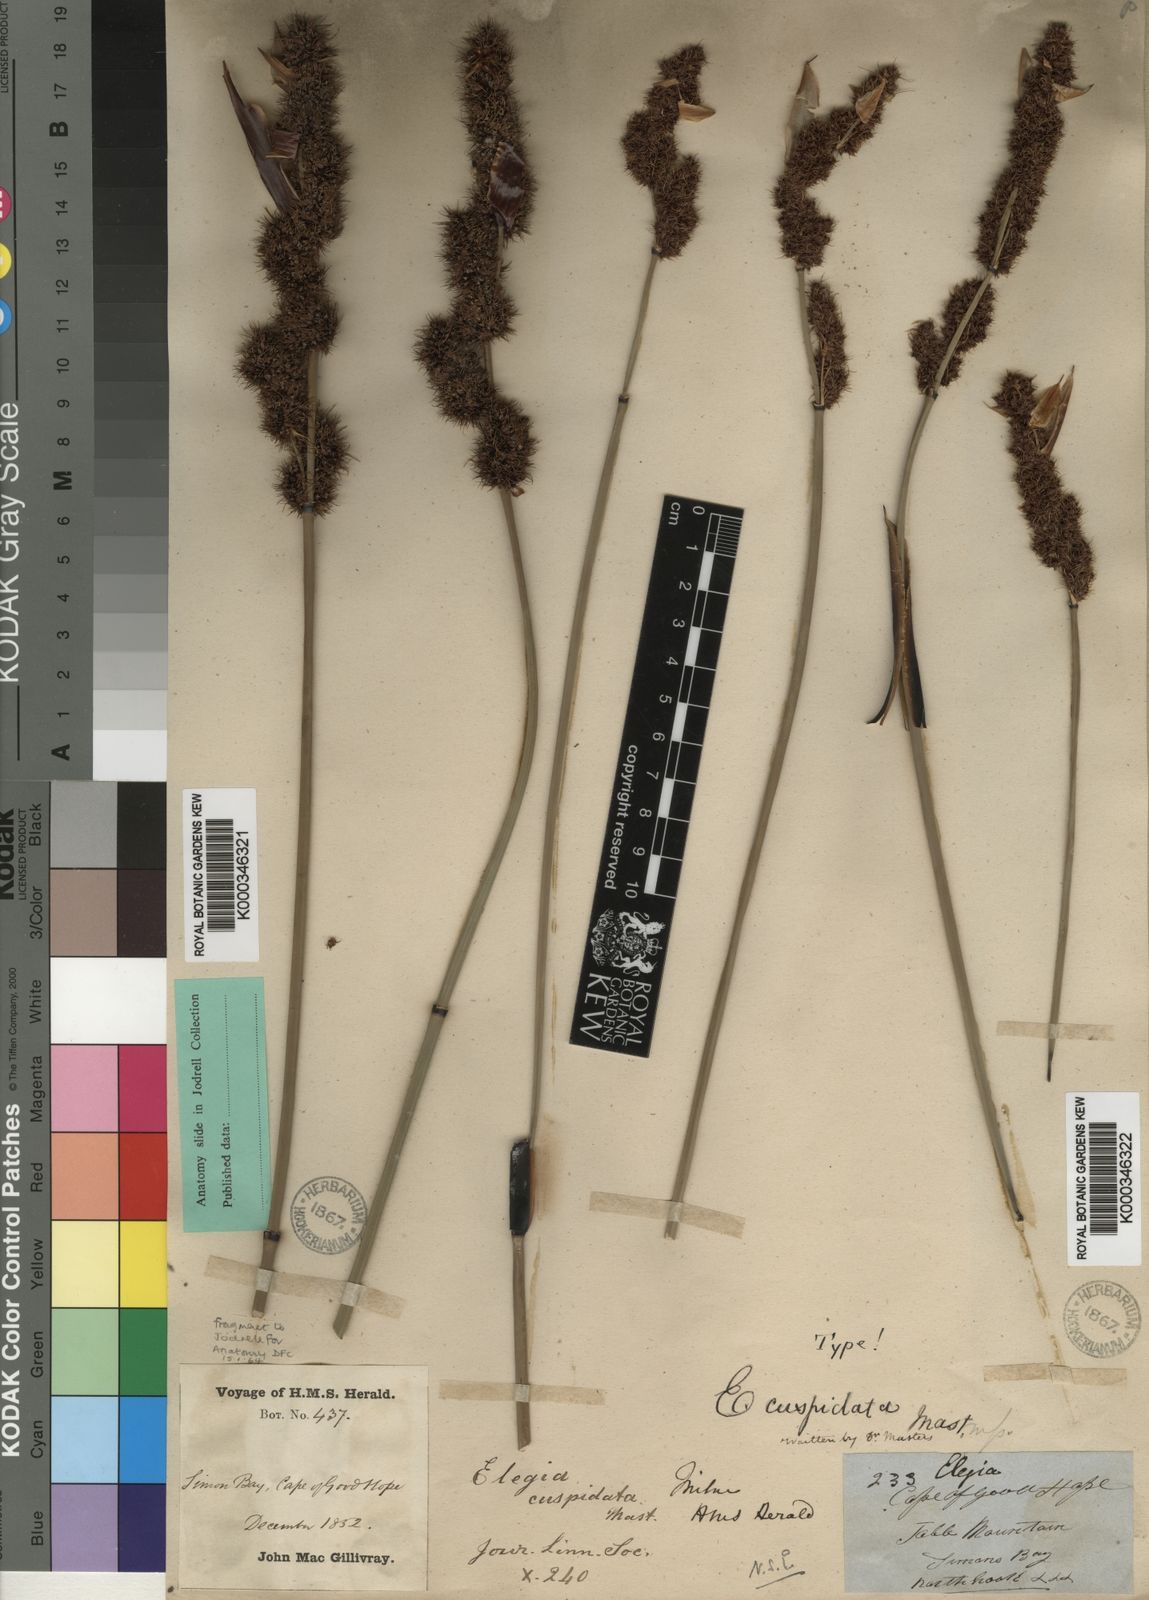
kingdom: Plantae
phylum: Tracheophyta
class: Liliopsida
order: Poales
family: Restionaceae
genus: Elegia
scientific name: Elegia
